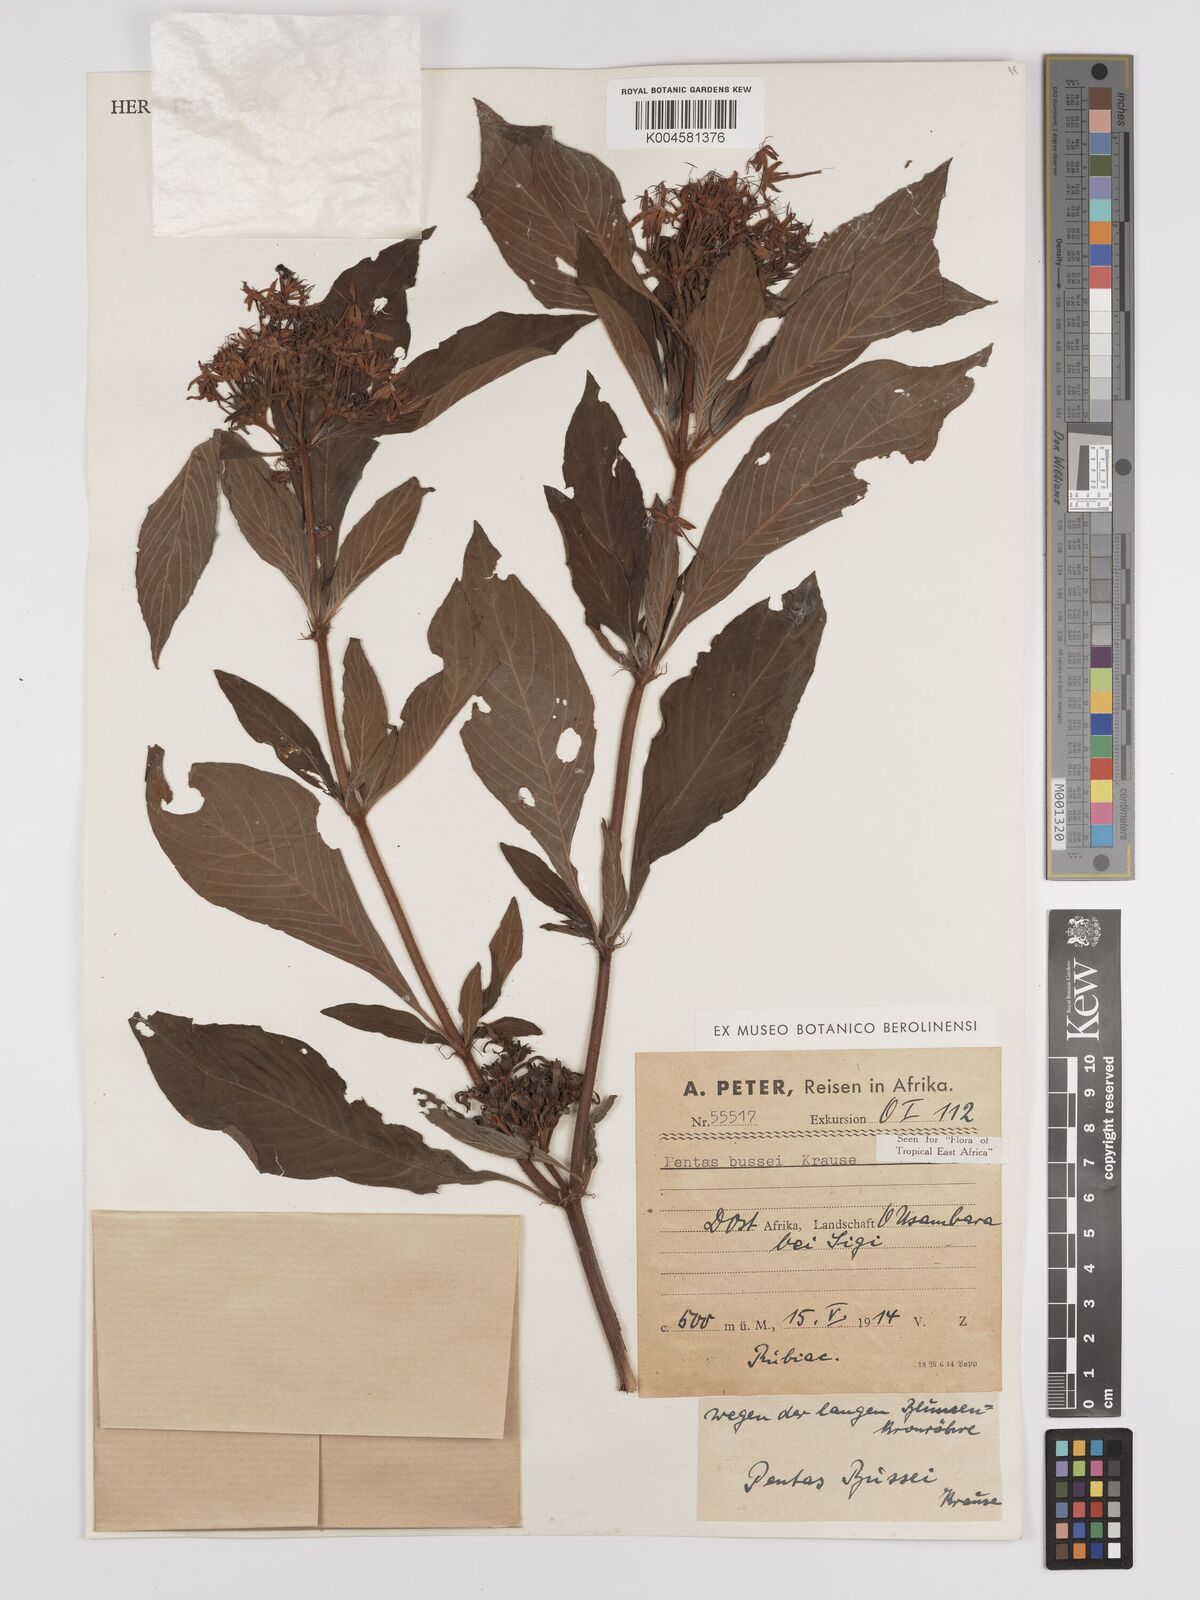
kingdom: Plantae
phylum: Tracheophyta
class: Magnoliopsida
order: Gentianales
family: Rubiaceae
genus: Rhodopentas
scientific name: Rhodopentas bussei
